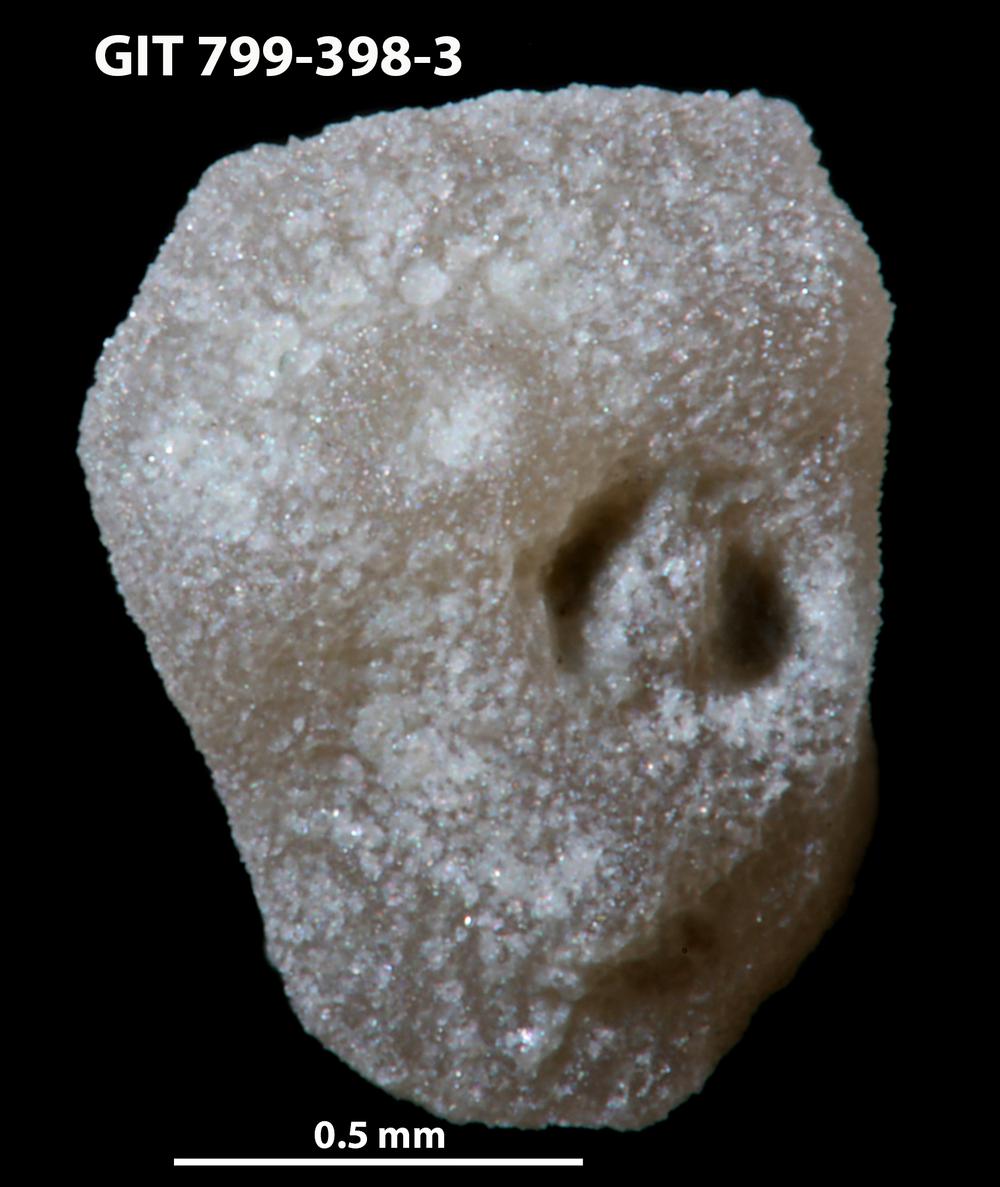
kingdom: Animalia
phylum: Echinodermata
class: Echinoidea
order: Bothriocidaroida
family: Bothriocidaridae
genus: Neobothriocidaris
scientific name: Neobothriocidaris
